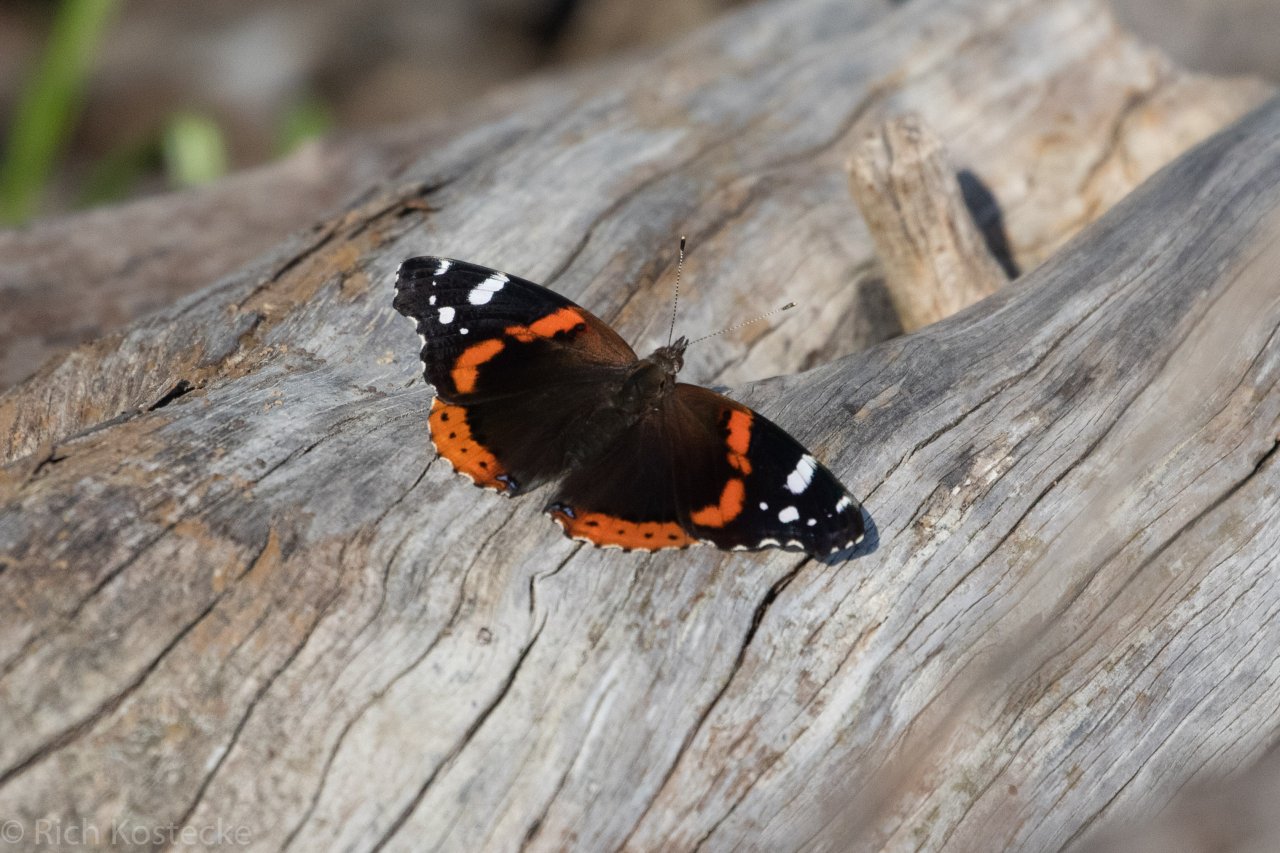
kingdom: Animalia
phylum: Arthropoda
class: Insecta
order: Lepidoptera
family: Nymphalidae
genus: Vanessa
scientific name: Vanessa atalanta
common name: Red Admiral
